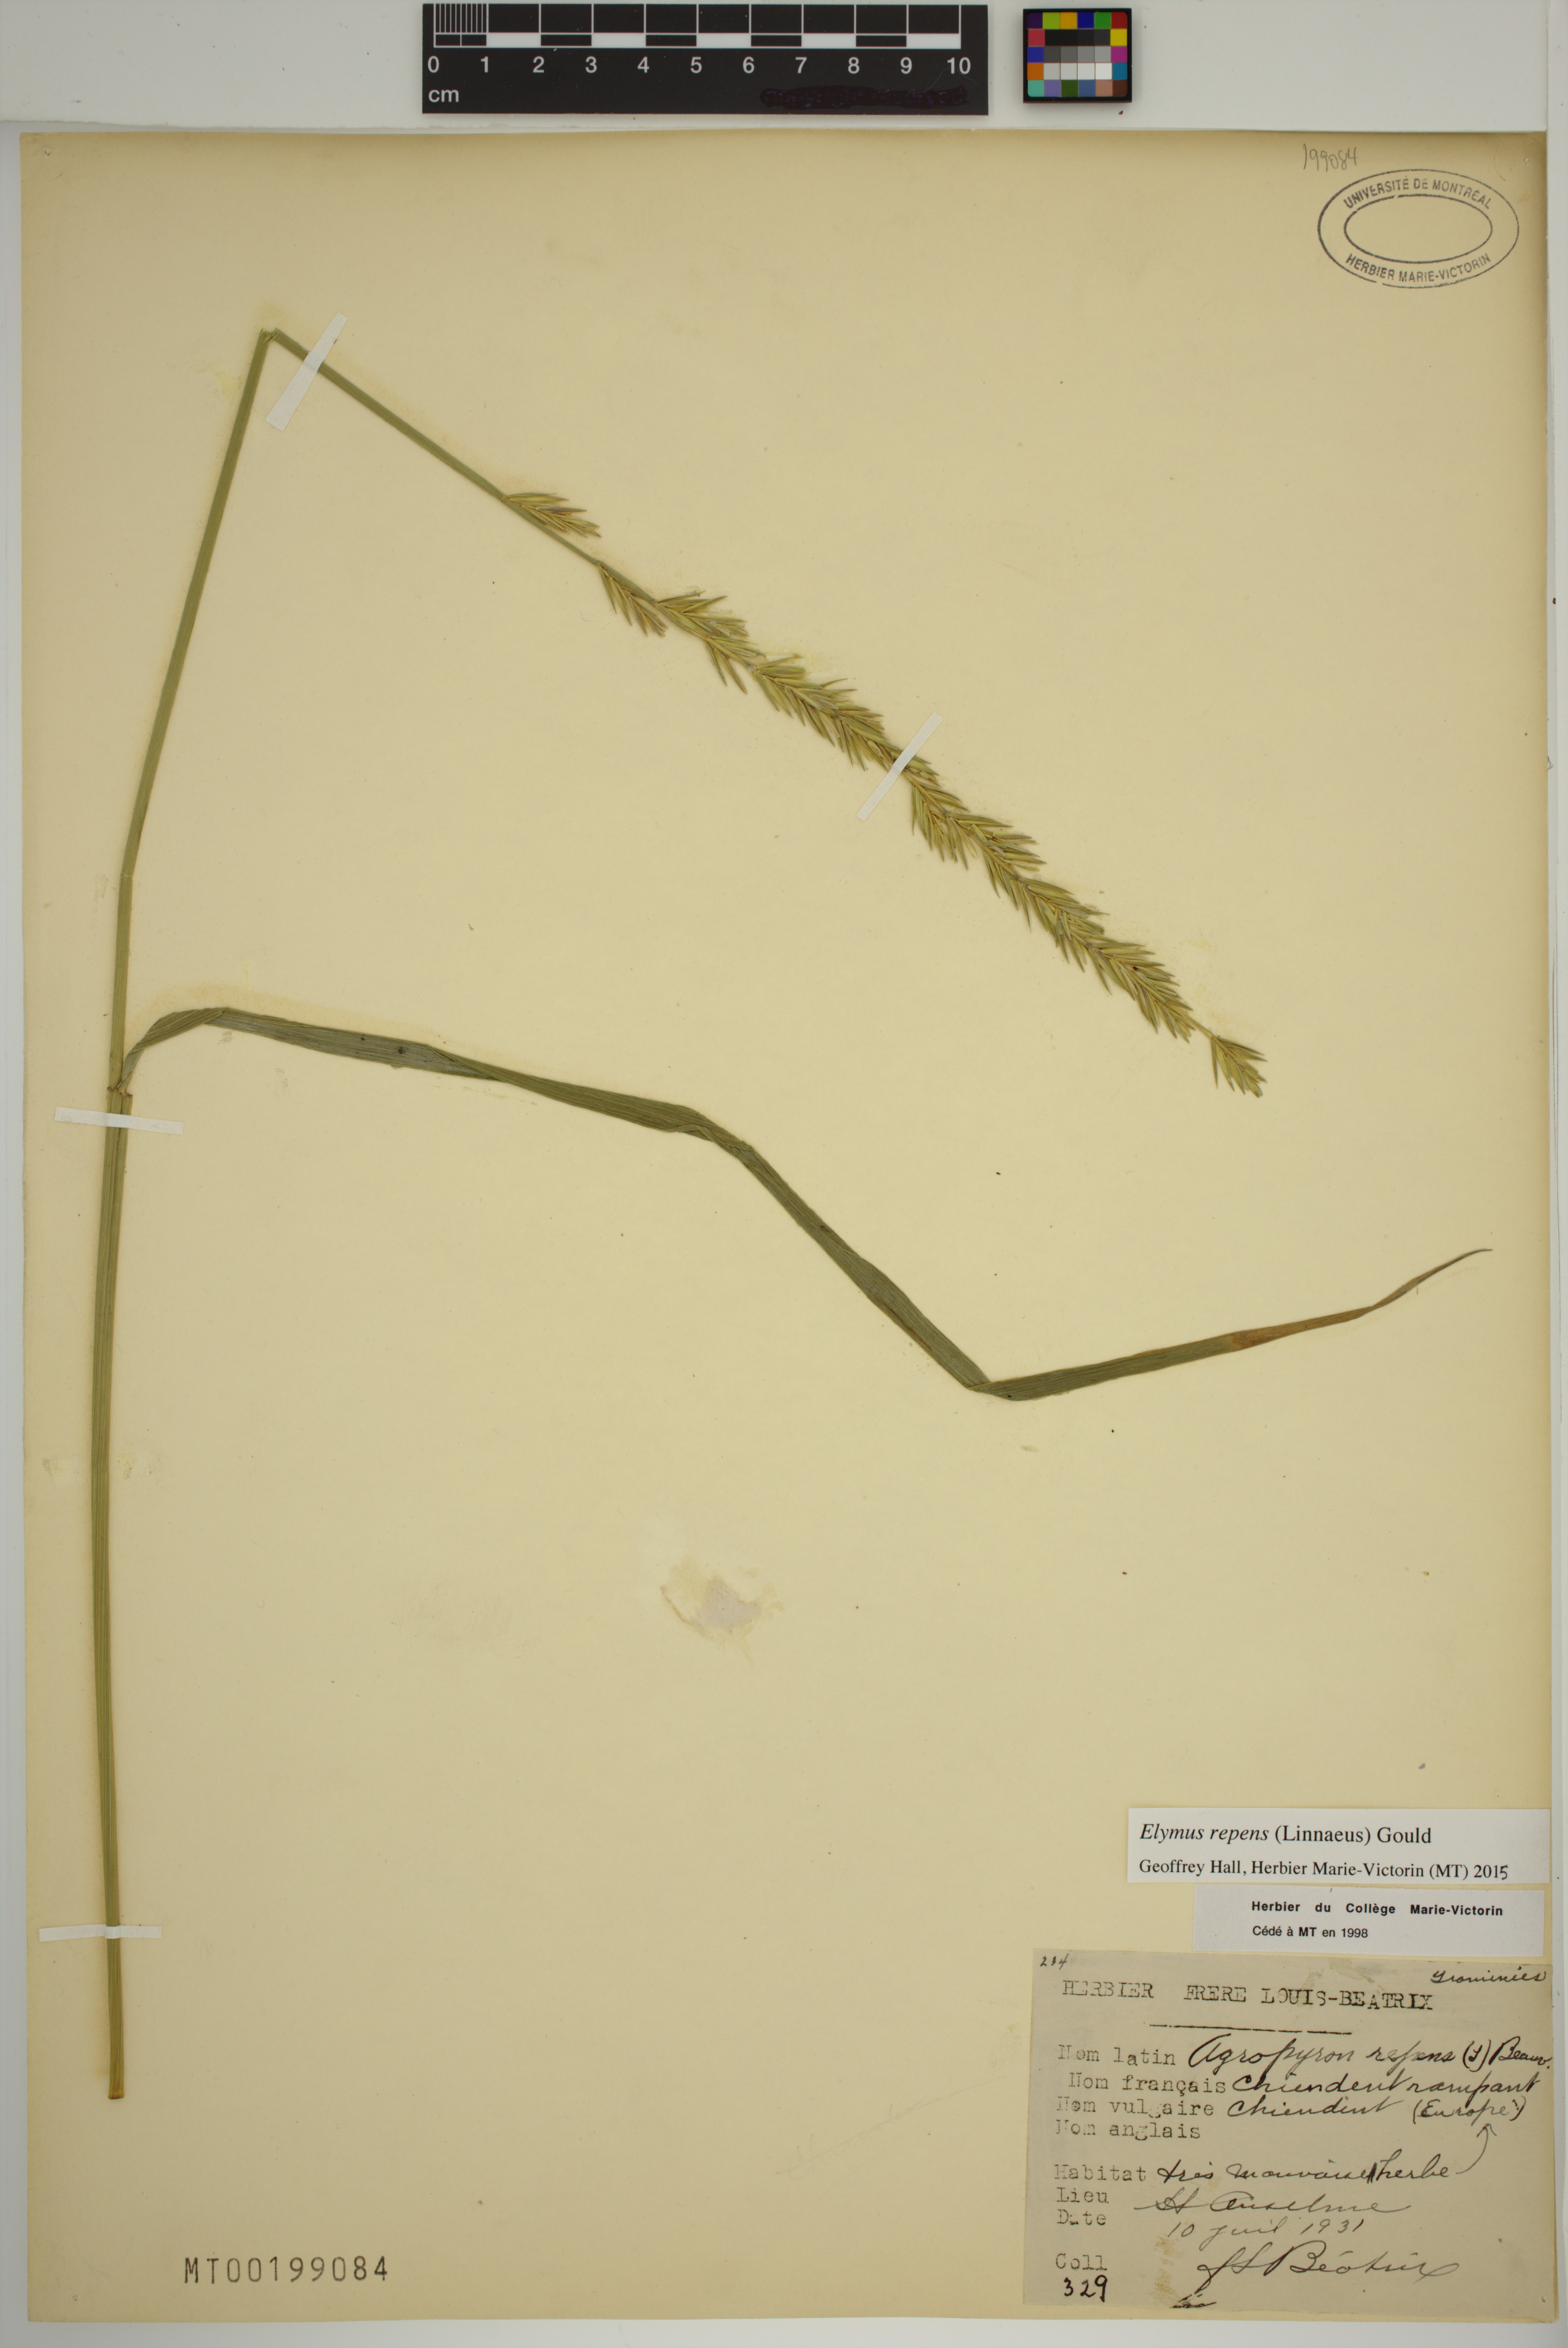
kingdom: Plantae
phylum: Tracheophyta
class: Liliopsida
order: Poales
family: Poaceae
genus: Elymus
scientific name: Elymus repens
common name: Quackgrass
